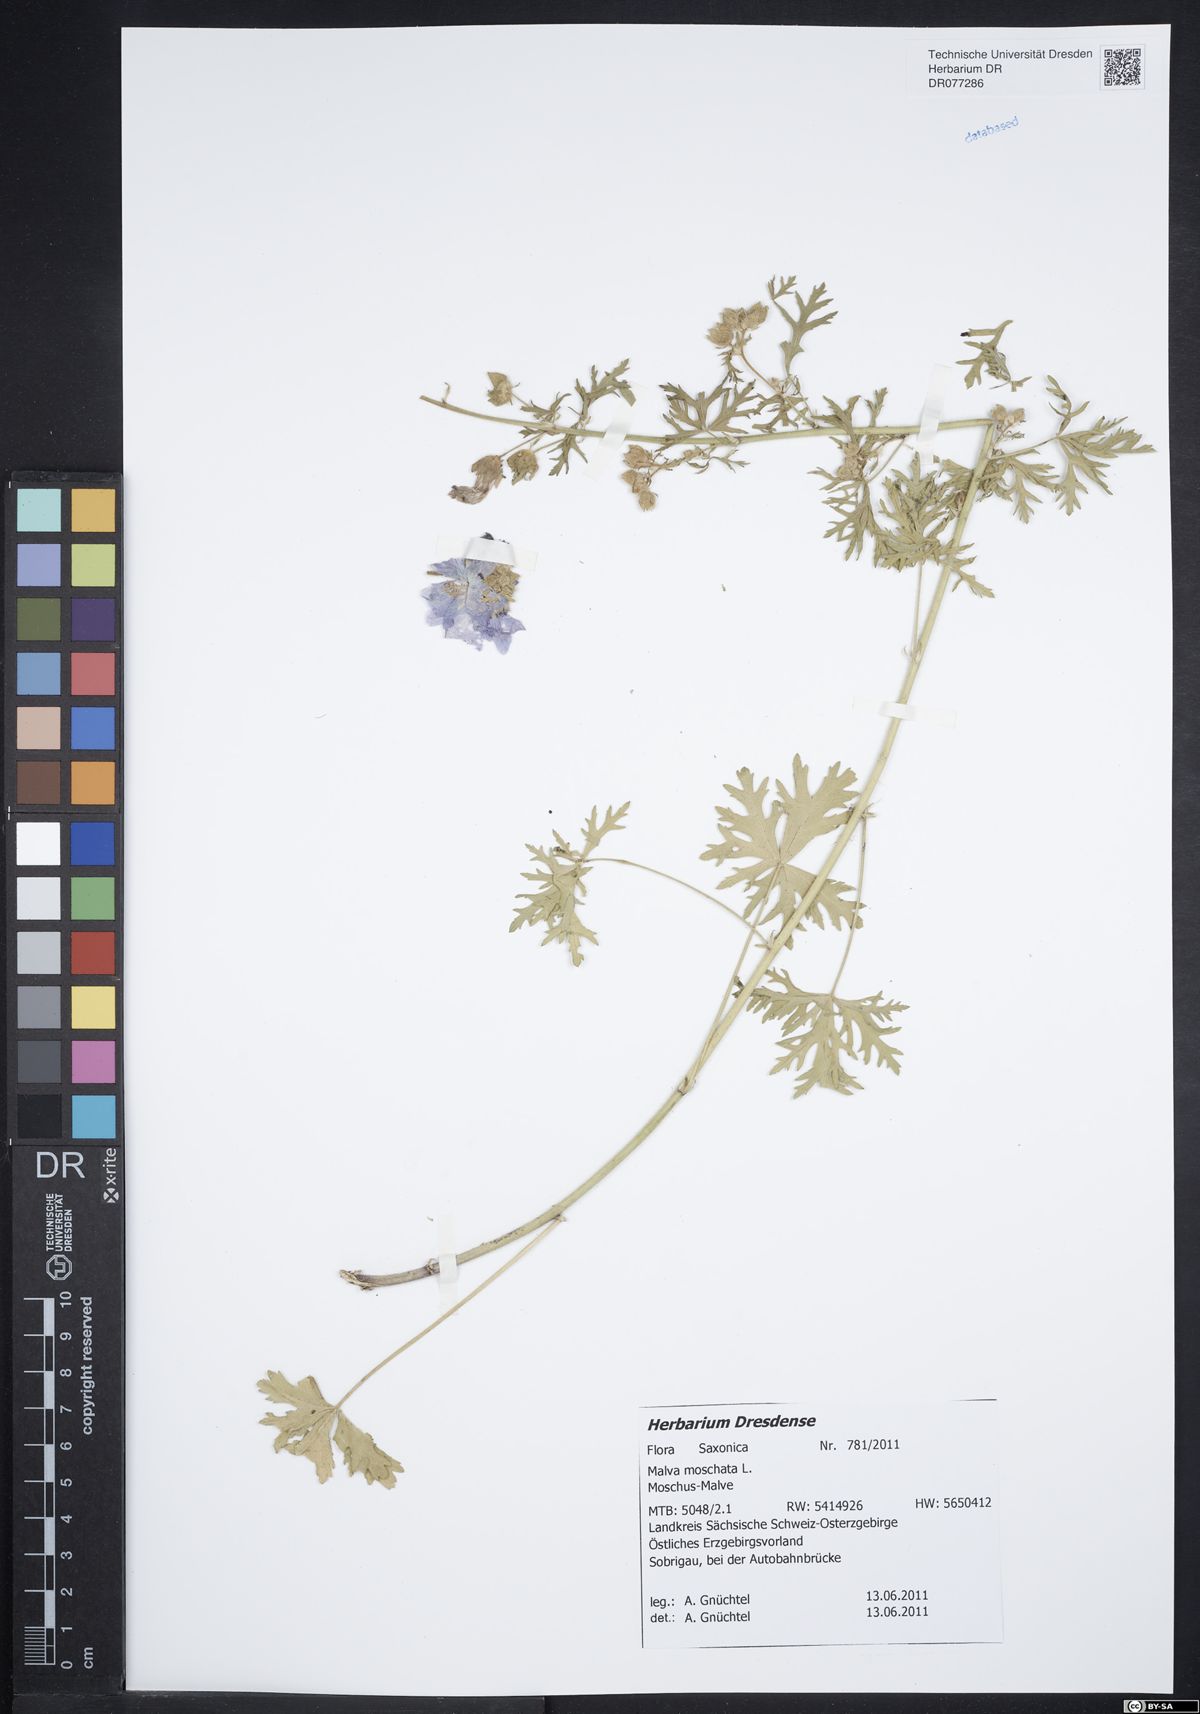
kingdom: Plantae
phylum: Tracheophyta
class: Magnoliopsida
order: Malvales
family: Malvaceae
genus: Malva
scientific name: Malva moschata
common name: Musk mallow
